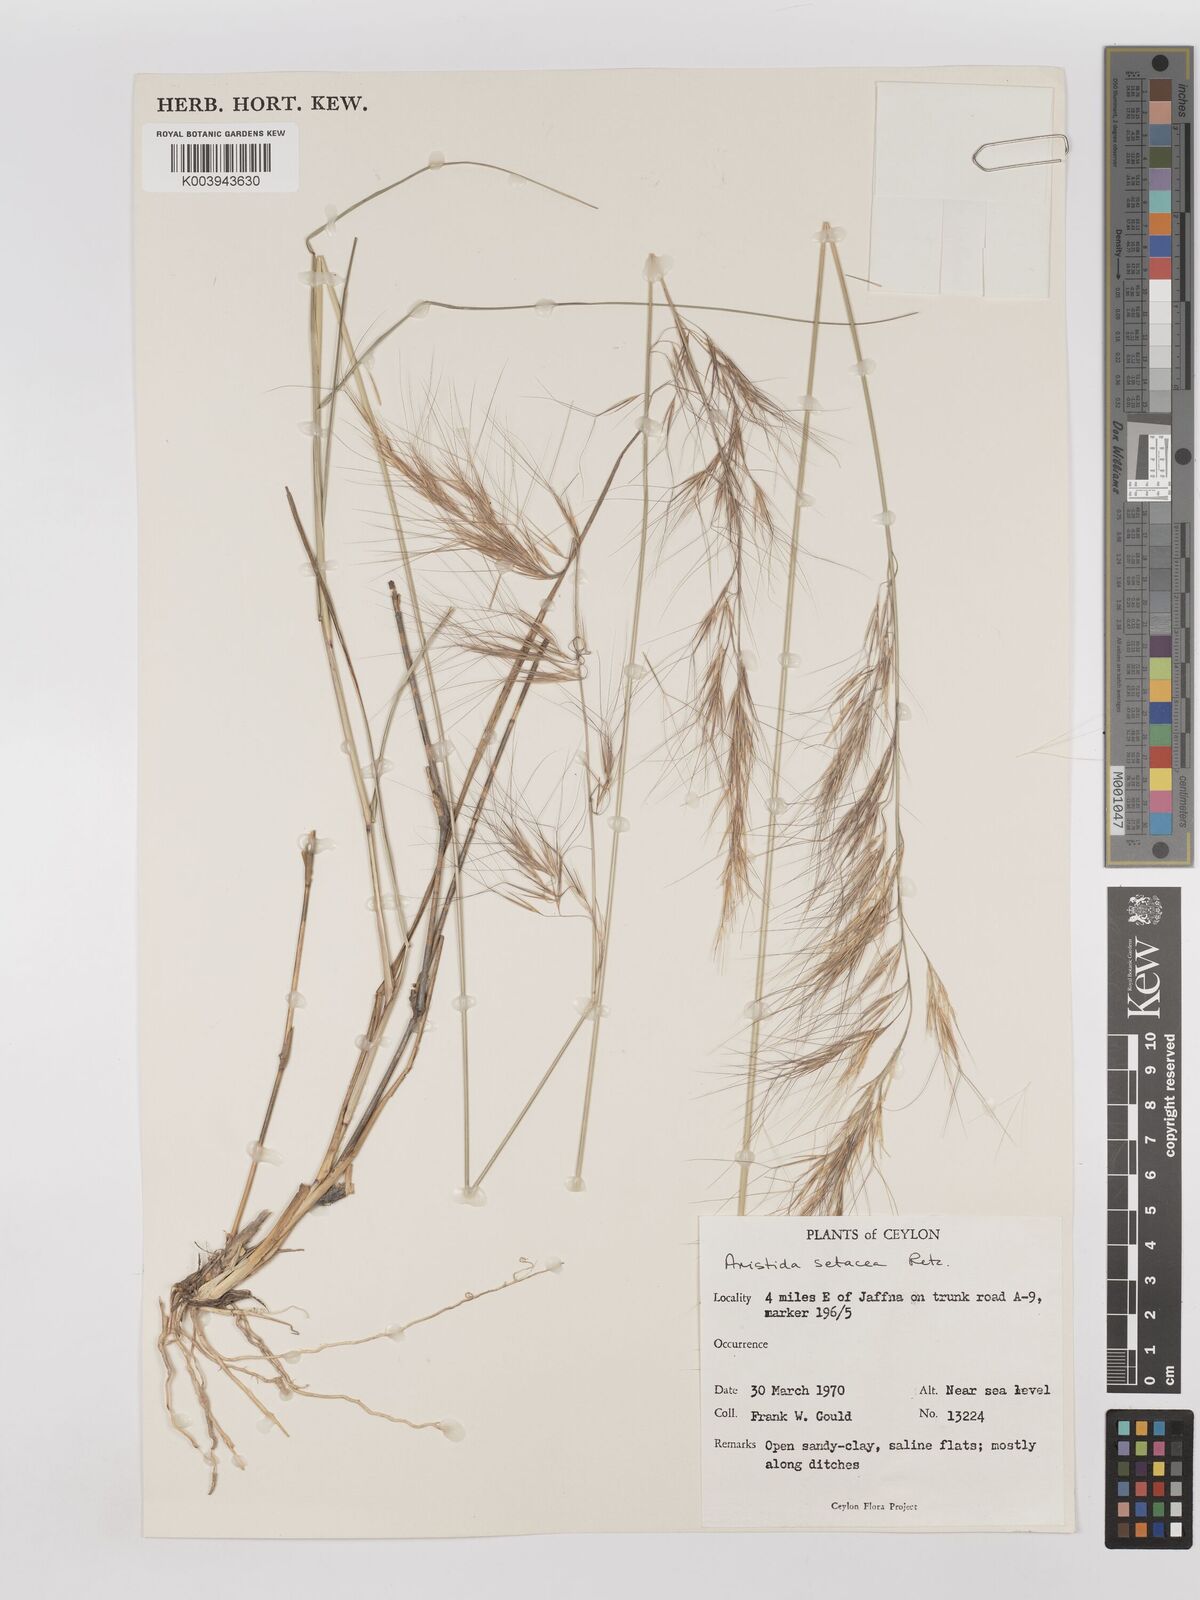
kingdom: Plantae
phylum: Tracheophyta
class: Liliopsida
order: Poales
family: Poaceae
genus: Aristida
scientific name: Aristida setacea
